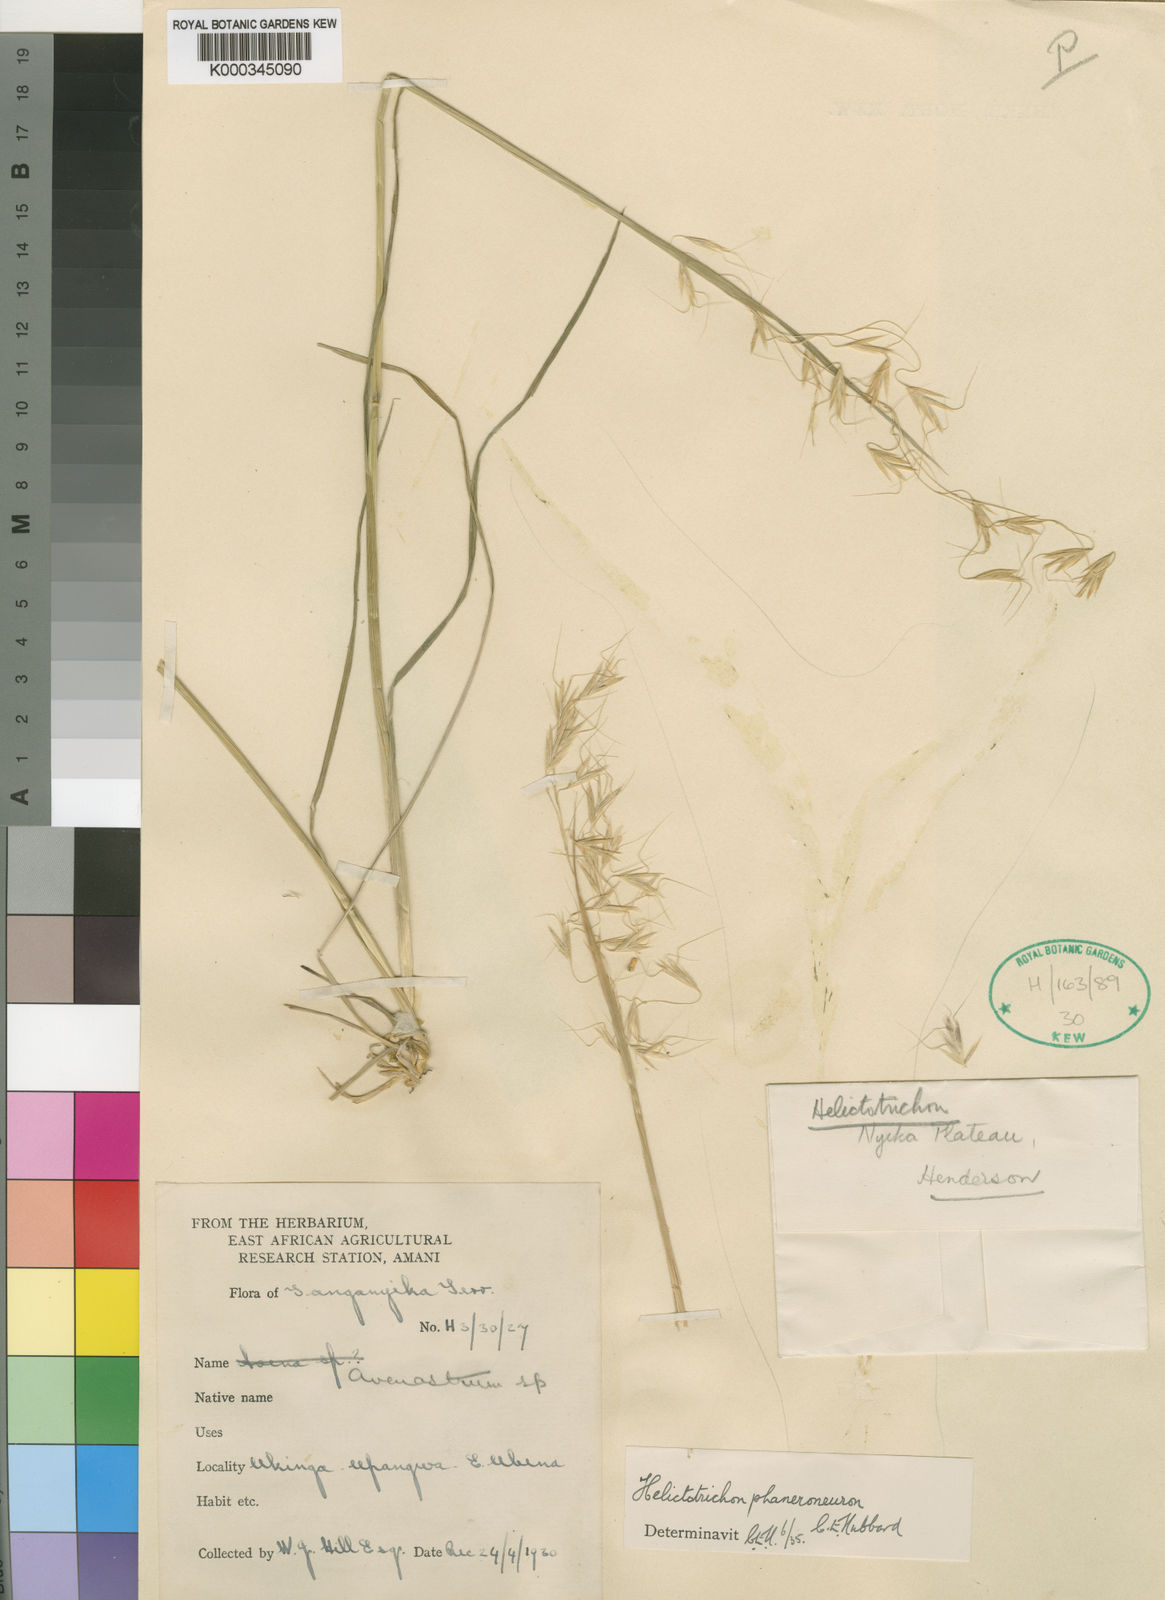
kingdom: Plantae
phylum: Tracheophyta
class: Liliopsida
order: Poales
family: Poaceae
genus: Trisetopsis
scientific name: Trisetopsis elongata
